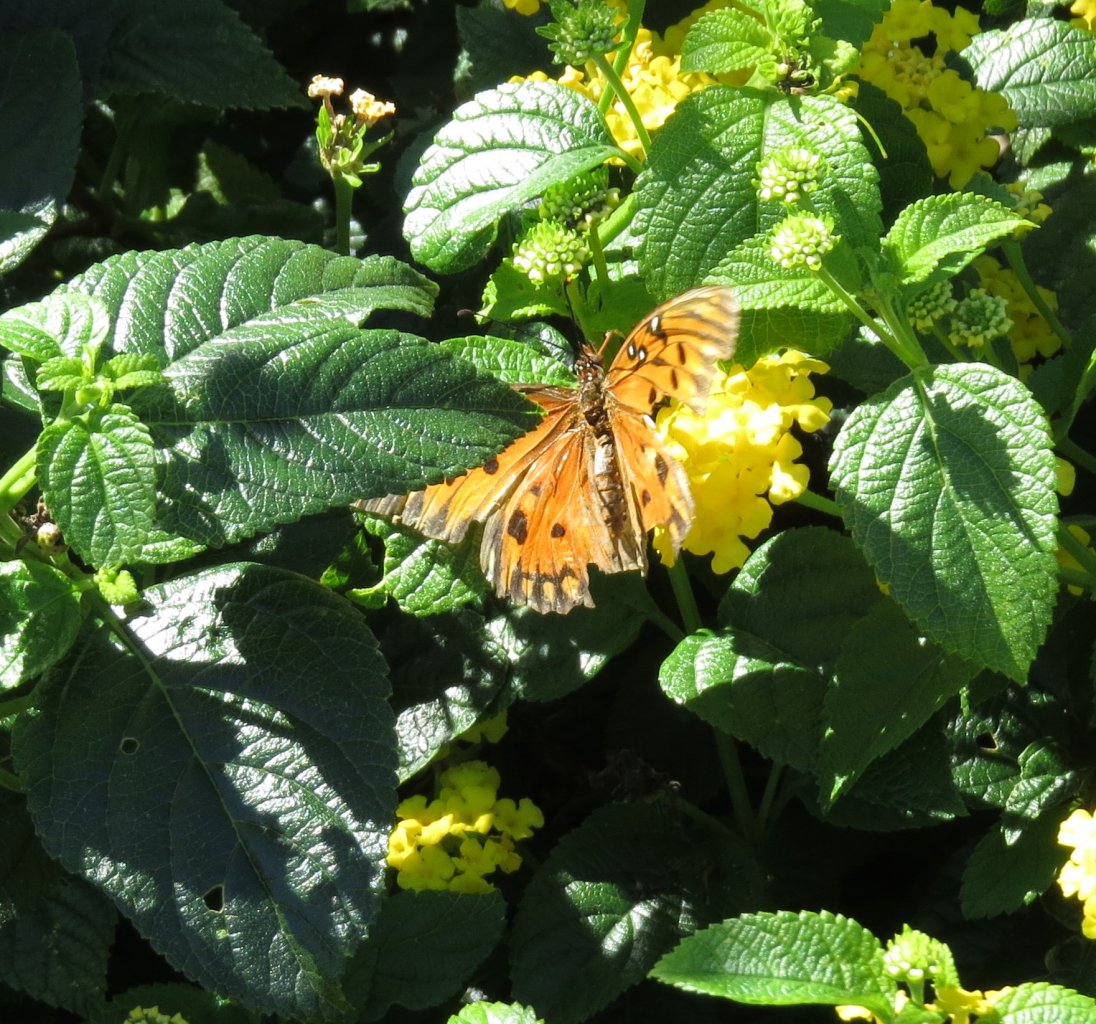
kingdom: Animalia
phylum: Arthropoda
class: Insecta
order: Lepidoptera
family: Nymphalidae
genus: Dione
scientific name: Dione vanillae
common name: Gulf Fritillary
